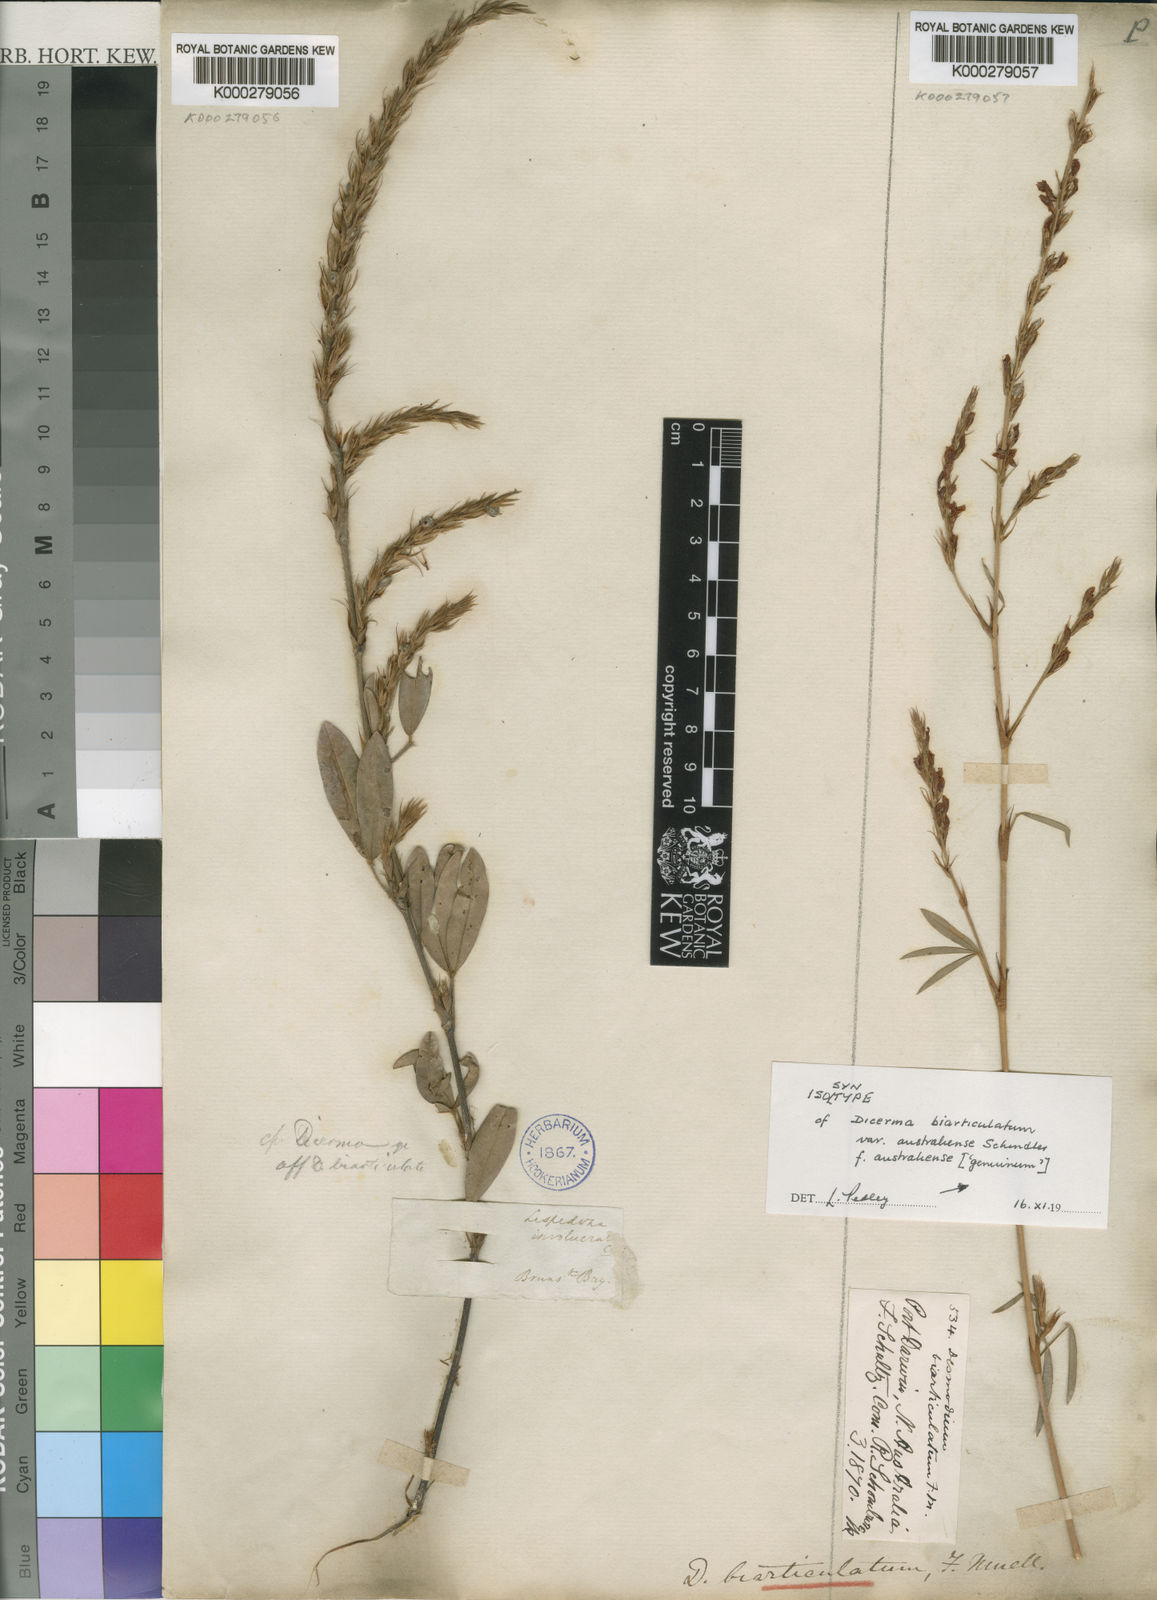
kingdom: Plantae
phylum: Tracheophyta
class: Magnoliopsida
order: Fabales
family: Fabaceae
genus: Aphyllodium
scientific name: Aphyllodium biarticulatum
